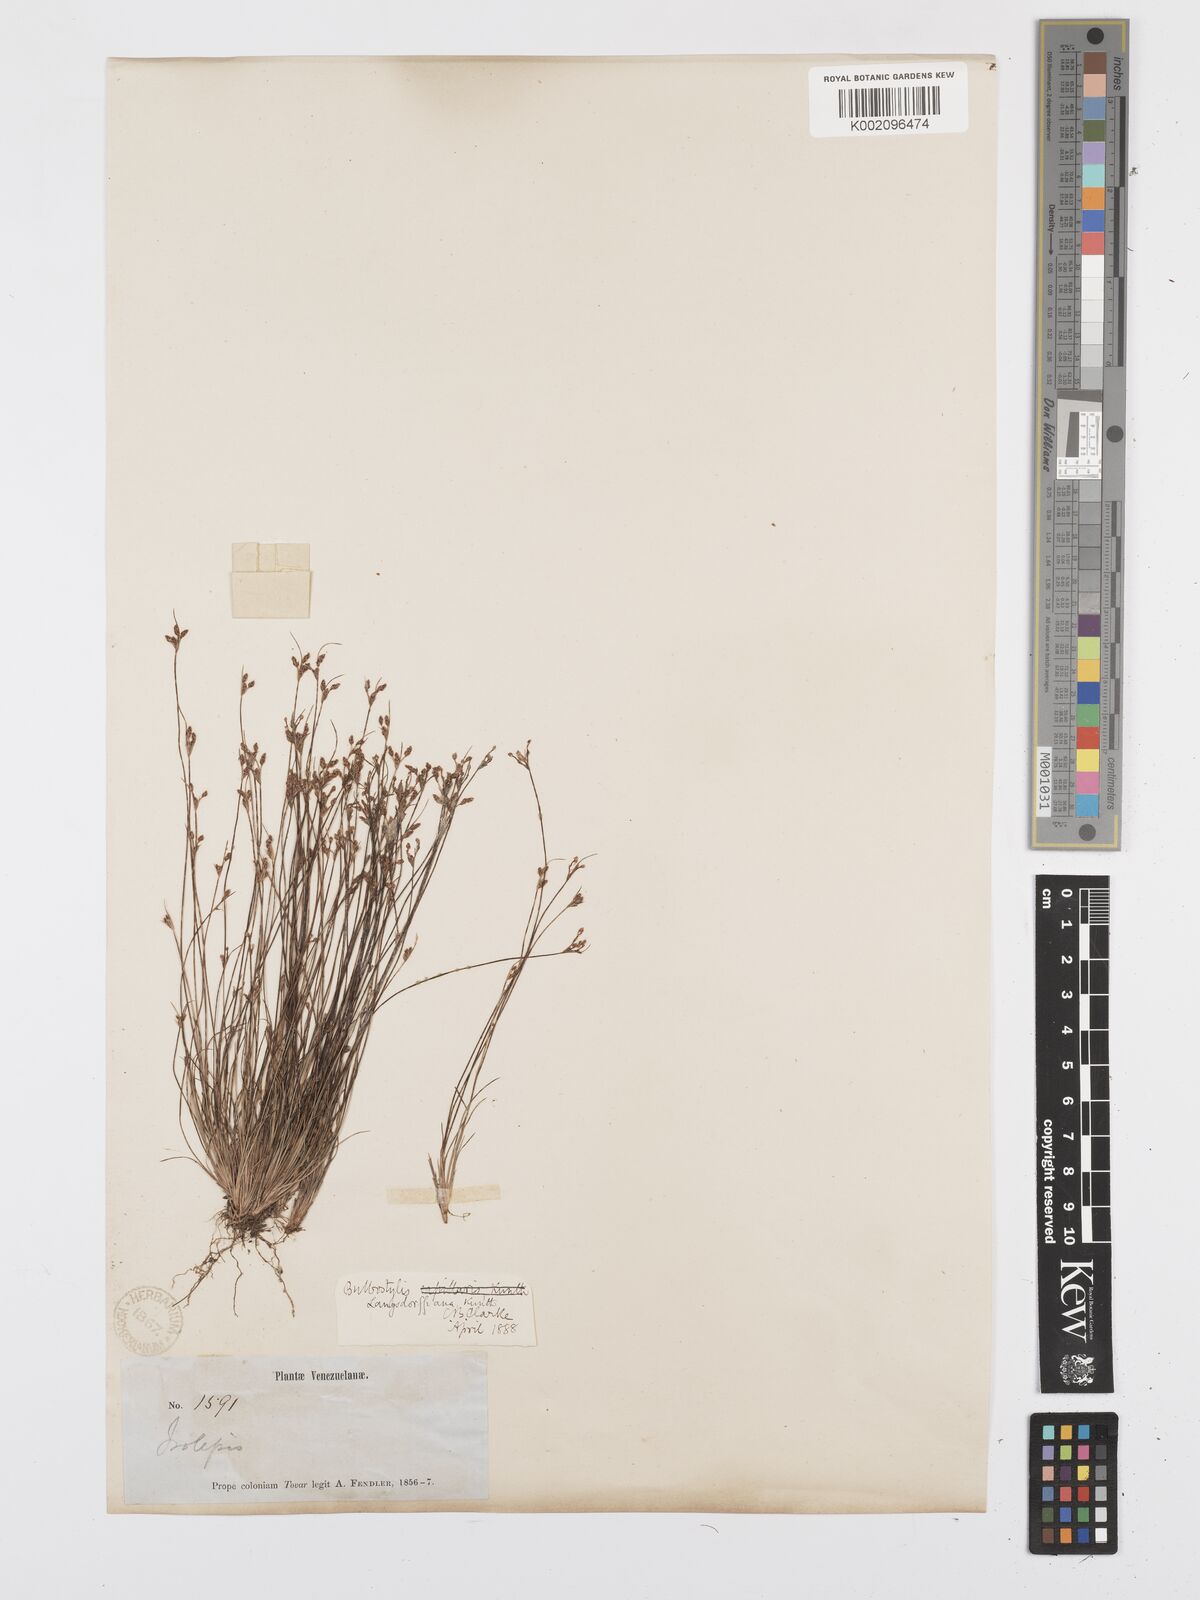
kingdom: Plantae
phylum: Tracheophyta
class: Liliopsida
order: Poales
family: Cyperaceae
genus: Bulbostylis
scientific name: Bulbostylis juncoides
